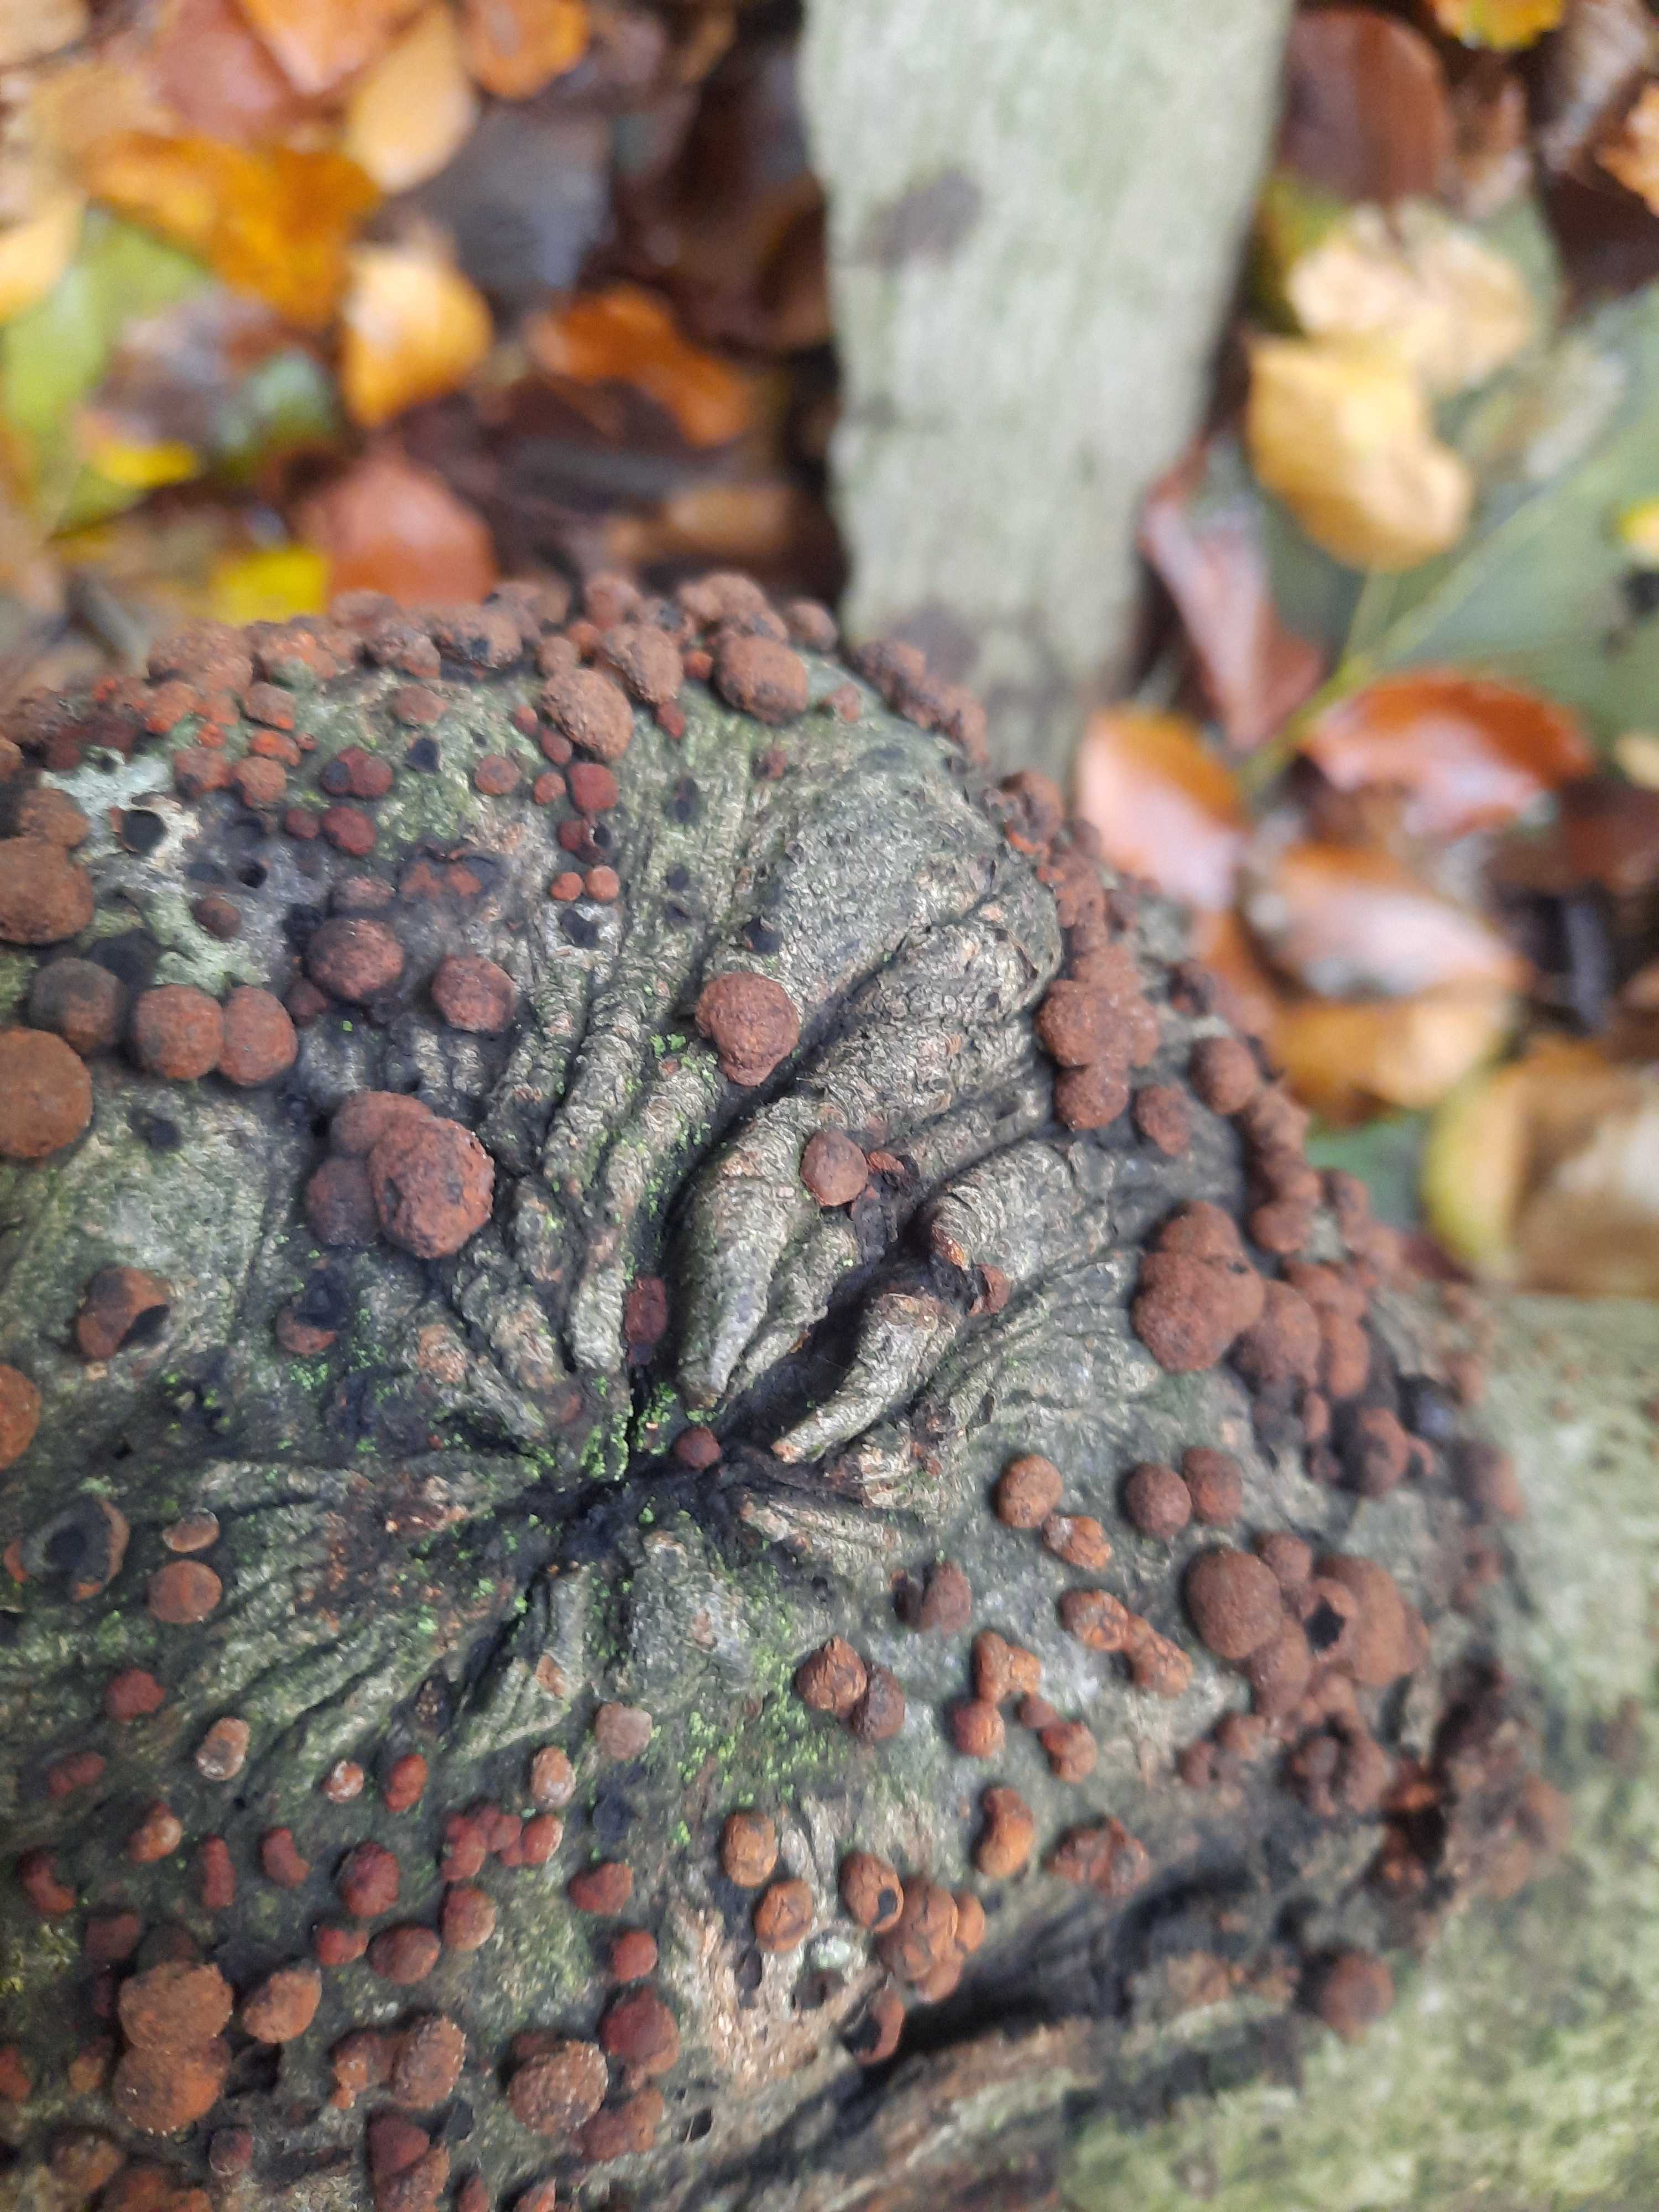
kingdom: Fungi
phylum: Ascomycota
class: Sordariomycetes
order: Xylariales
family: Hypoxylaceae
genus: Hypoxylon
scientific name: Hypoxylon fragiforme
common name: kuljordbær
